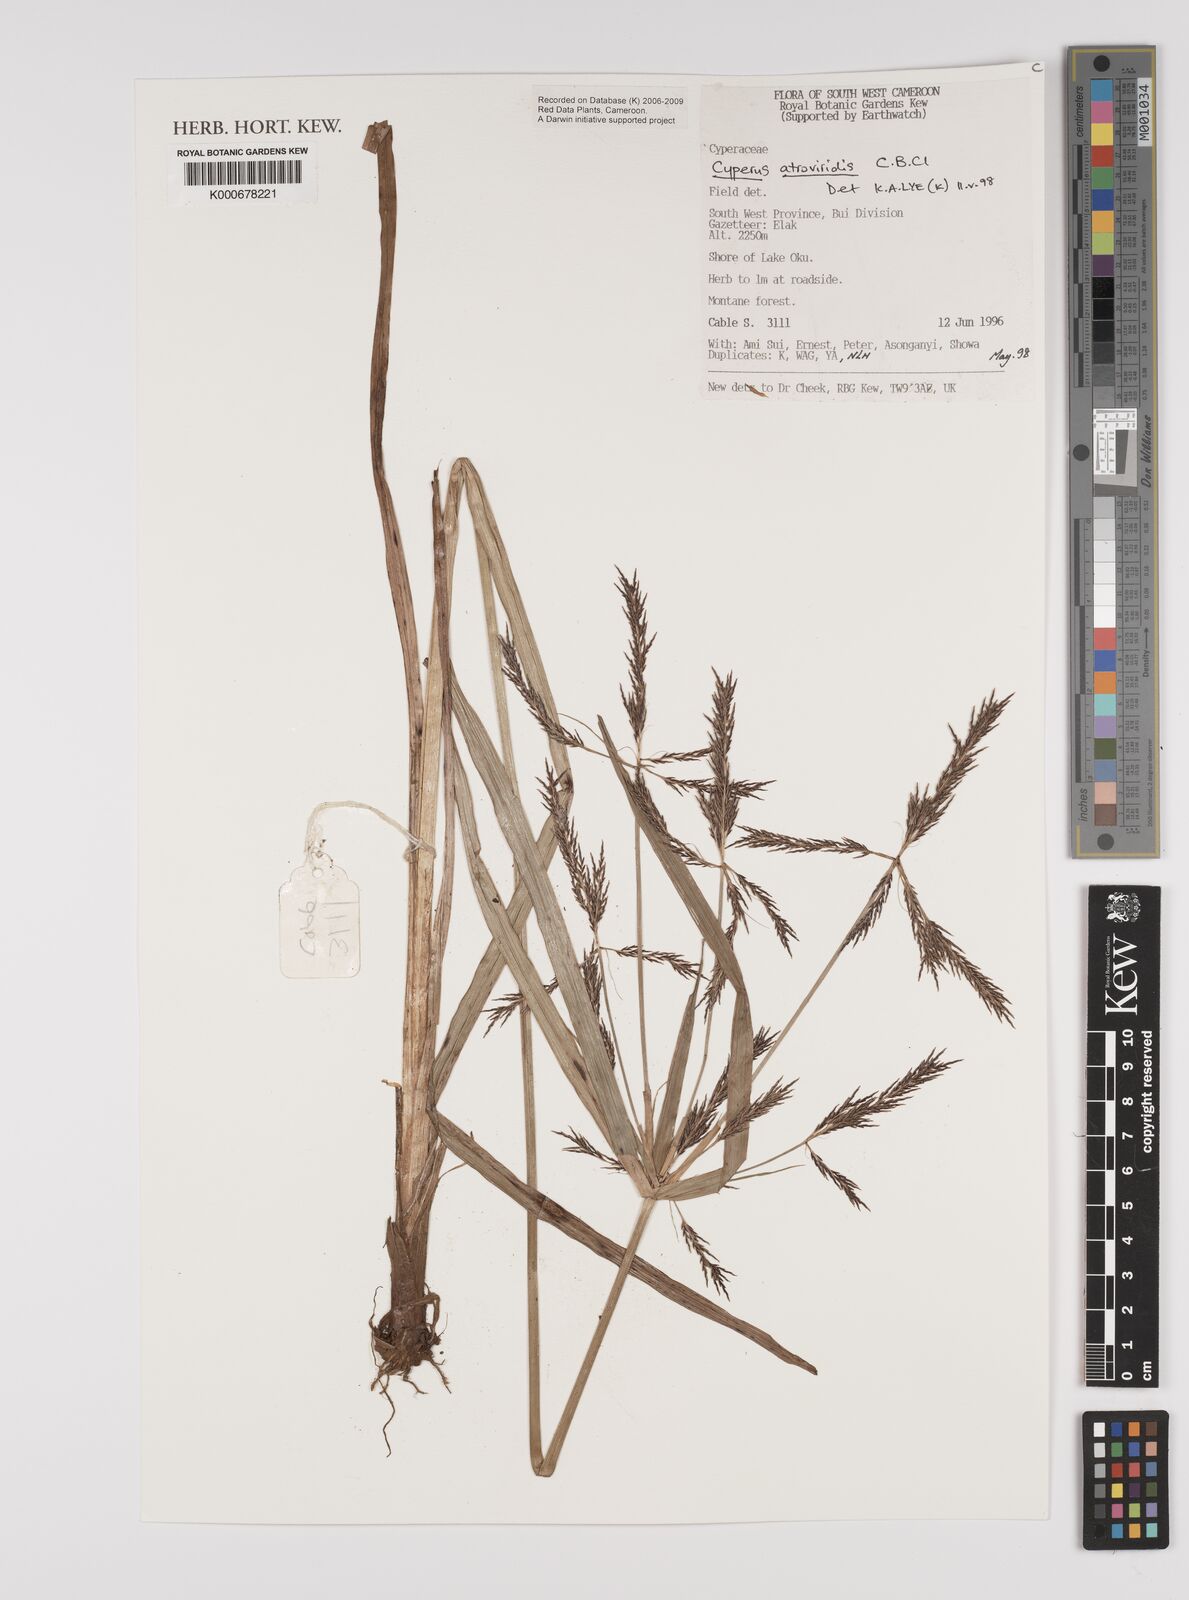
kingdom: Plantae
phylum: Tracheophyta
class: Liliopsida
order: Poales
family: Cyperaceae
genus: Cyperus
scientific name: Cyperus aterrimus
